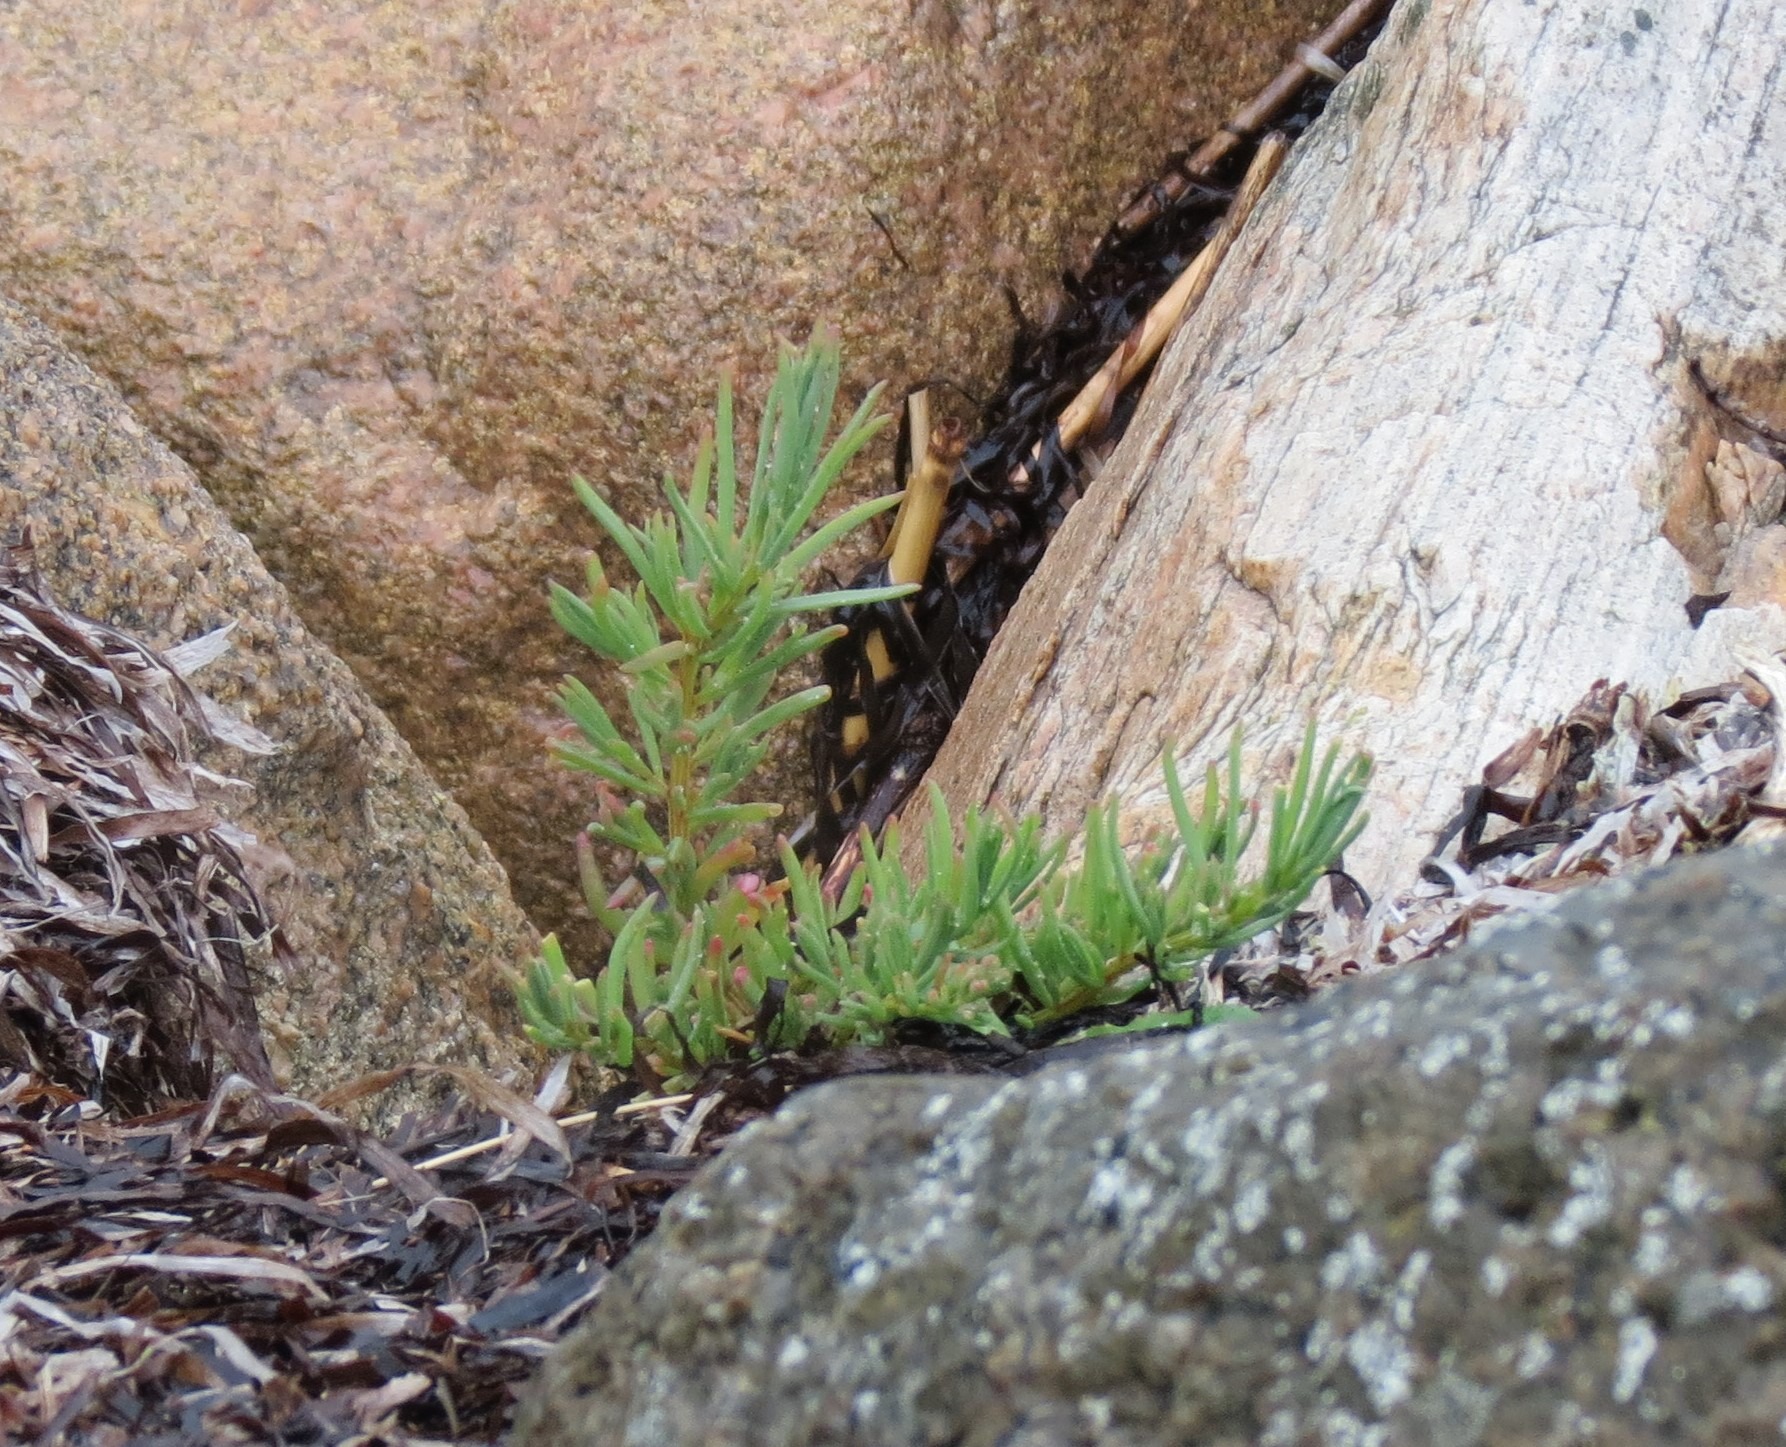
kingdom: Plantae
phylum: Tracheophyta
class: Magnoliopsida
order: Caryophyllales
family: Amaranthaceae
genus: Suaeda
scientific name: Suaeda maritima
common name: Strandgåsefod
